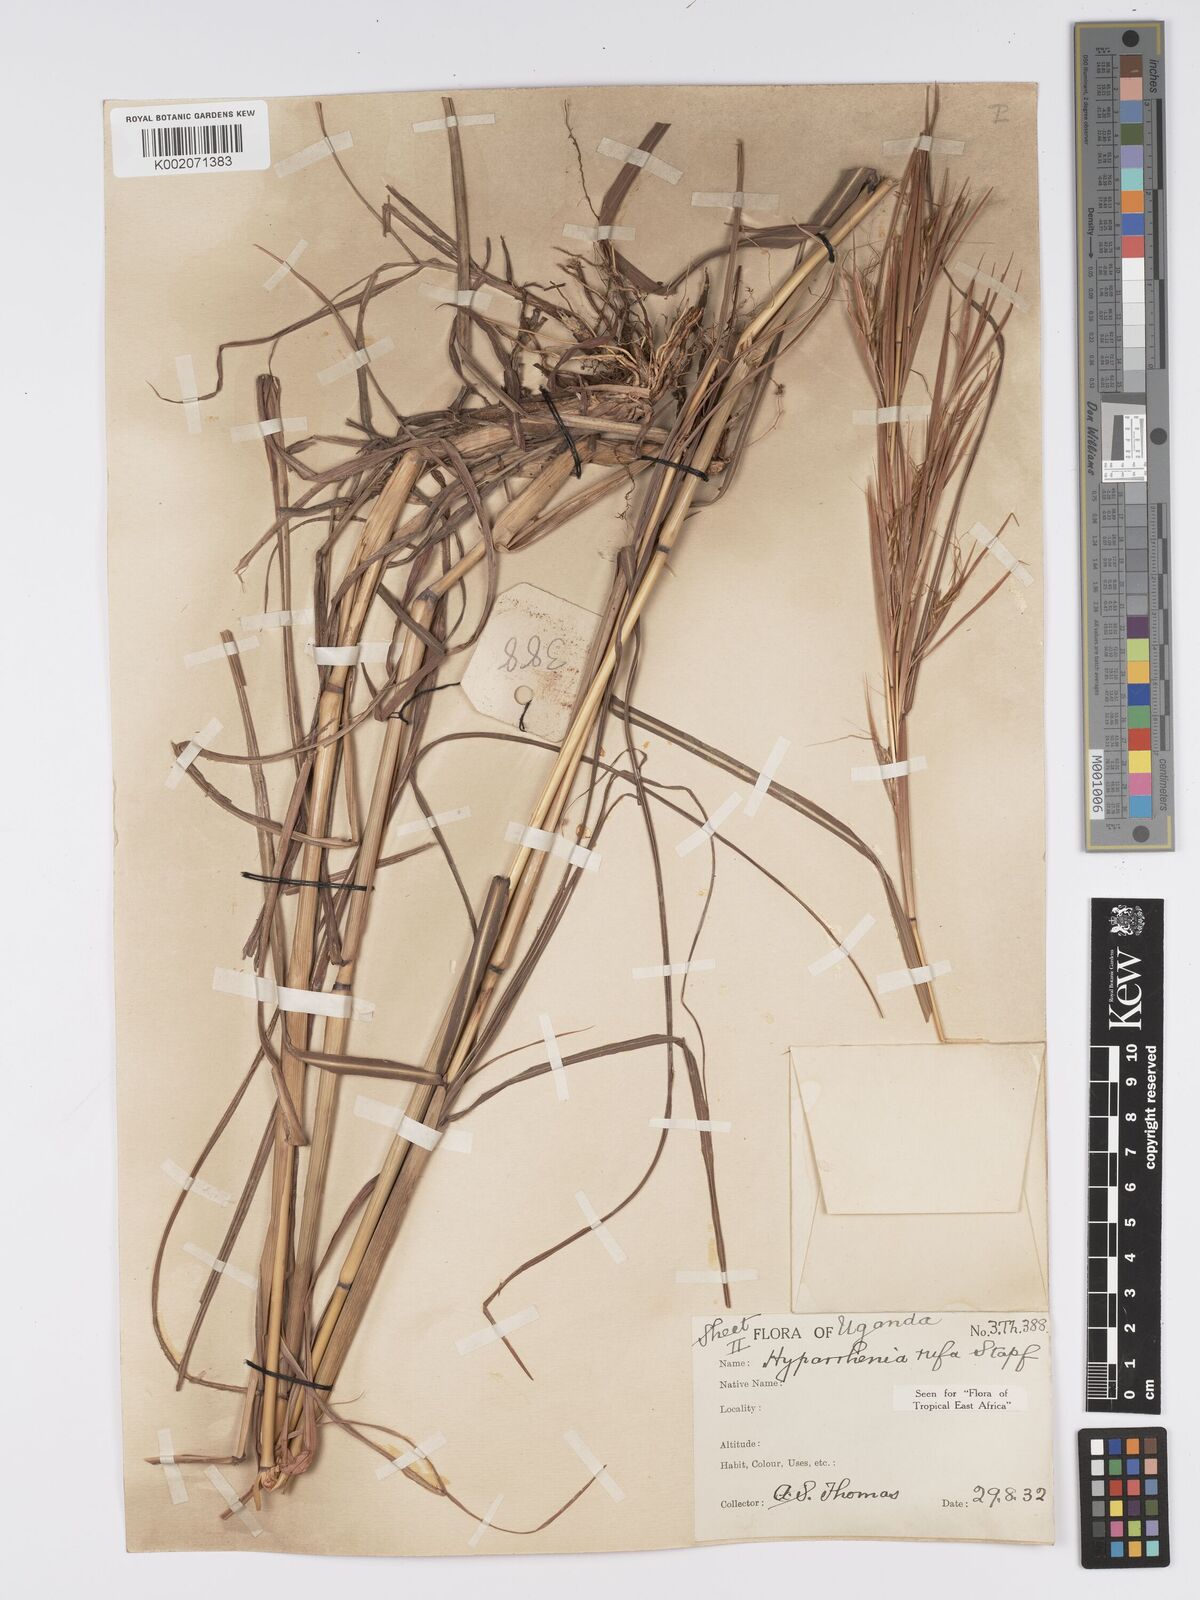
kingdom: Plantae
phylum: Tracheophyta
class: Liliopsida
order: Poales
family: Poaceae
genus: Hyparrhenia
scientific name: Hyparrhenia rufa
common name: Jaraguagrass
